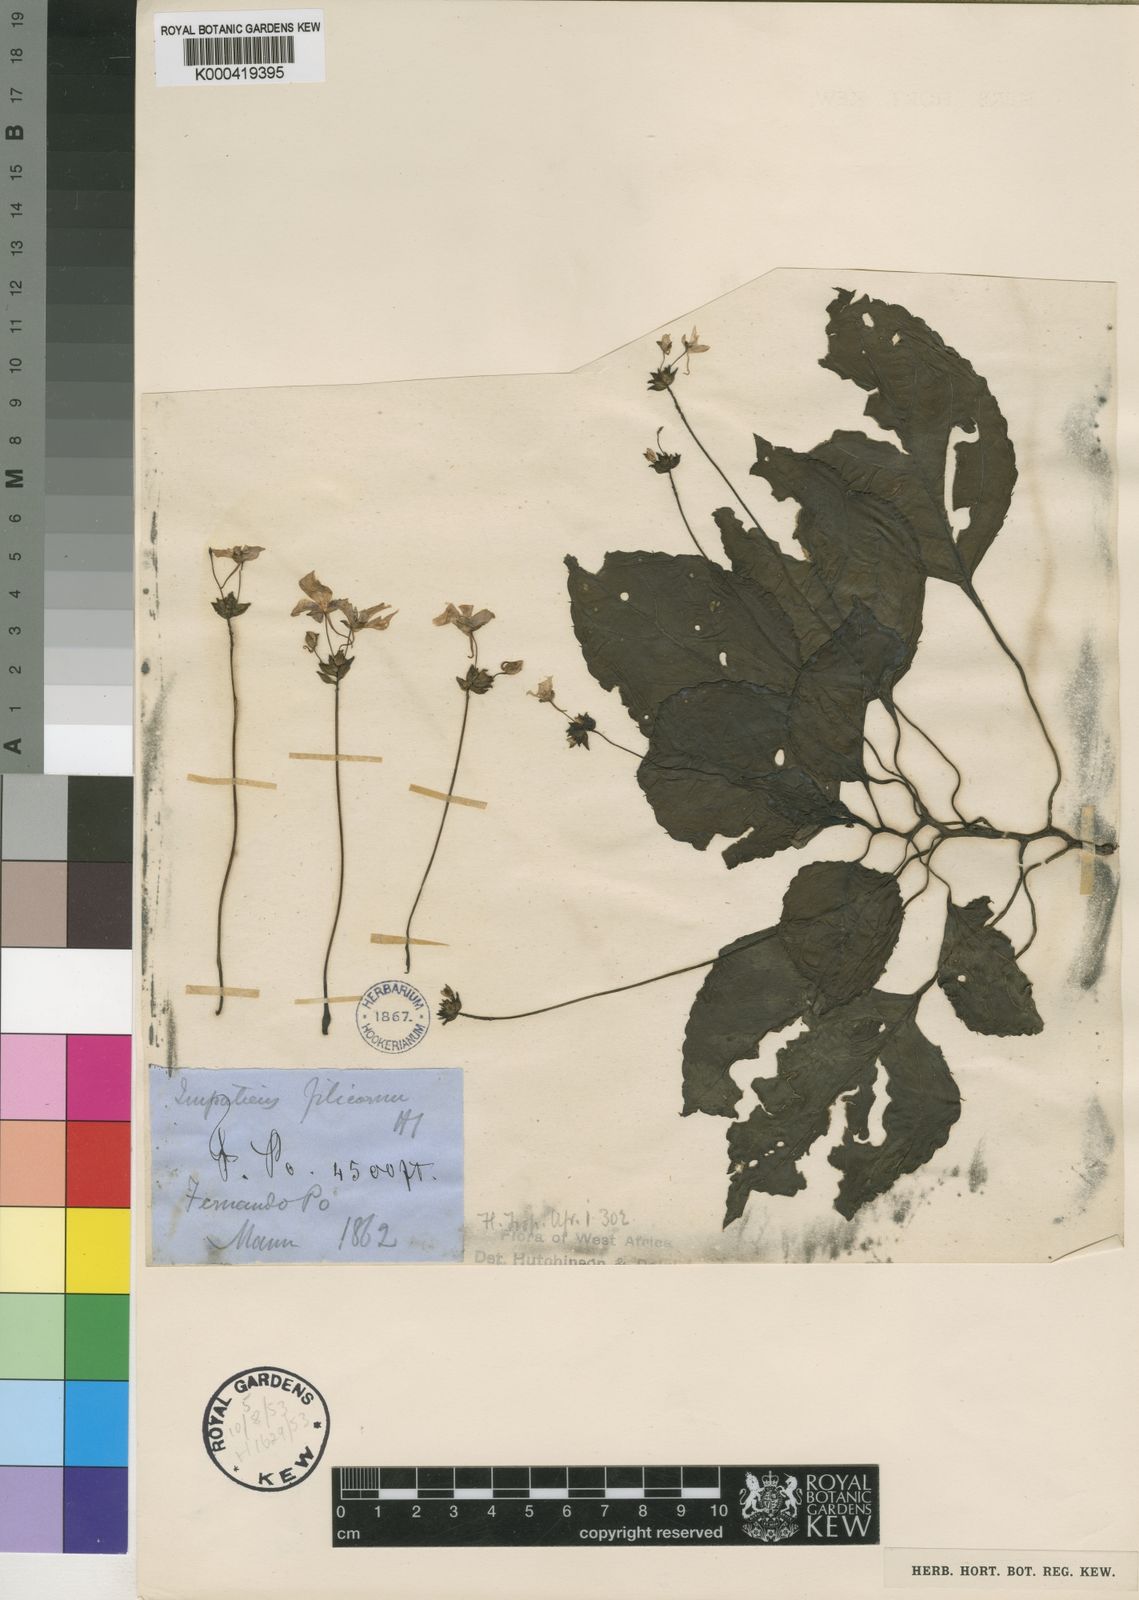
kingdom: Plantae
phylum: Tracheophyta
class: Magnoliopsida
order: Ericales
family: Balsaminaceae
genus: Impatiens
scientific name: Impatiens filicornu
